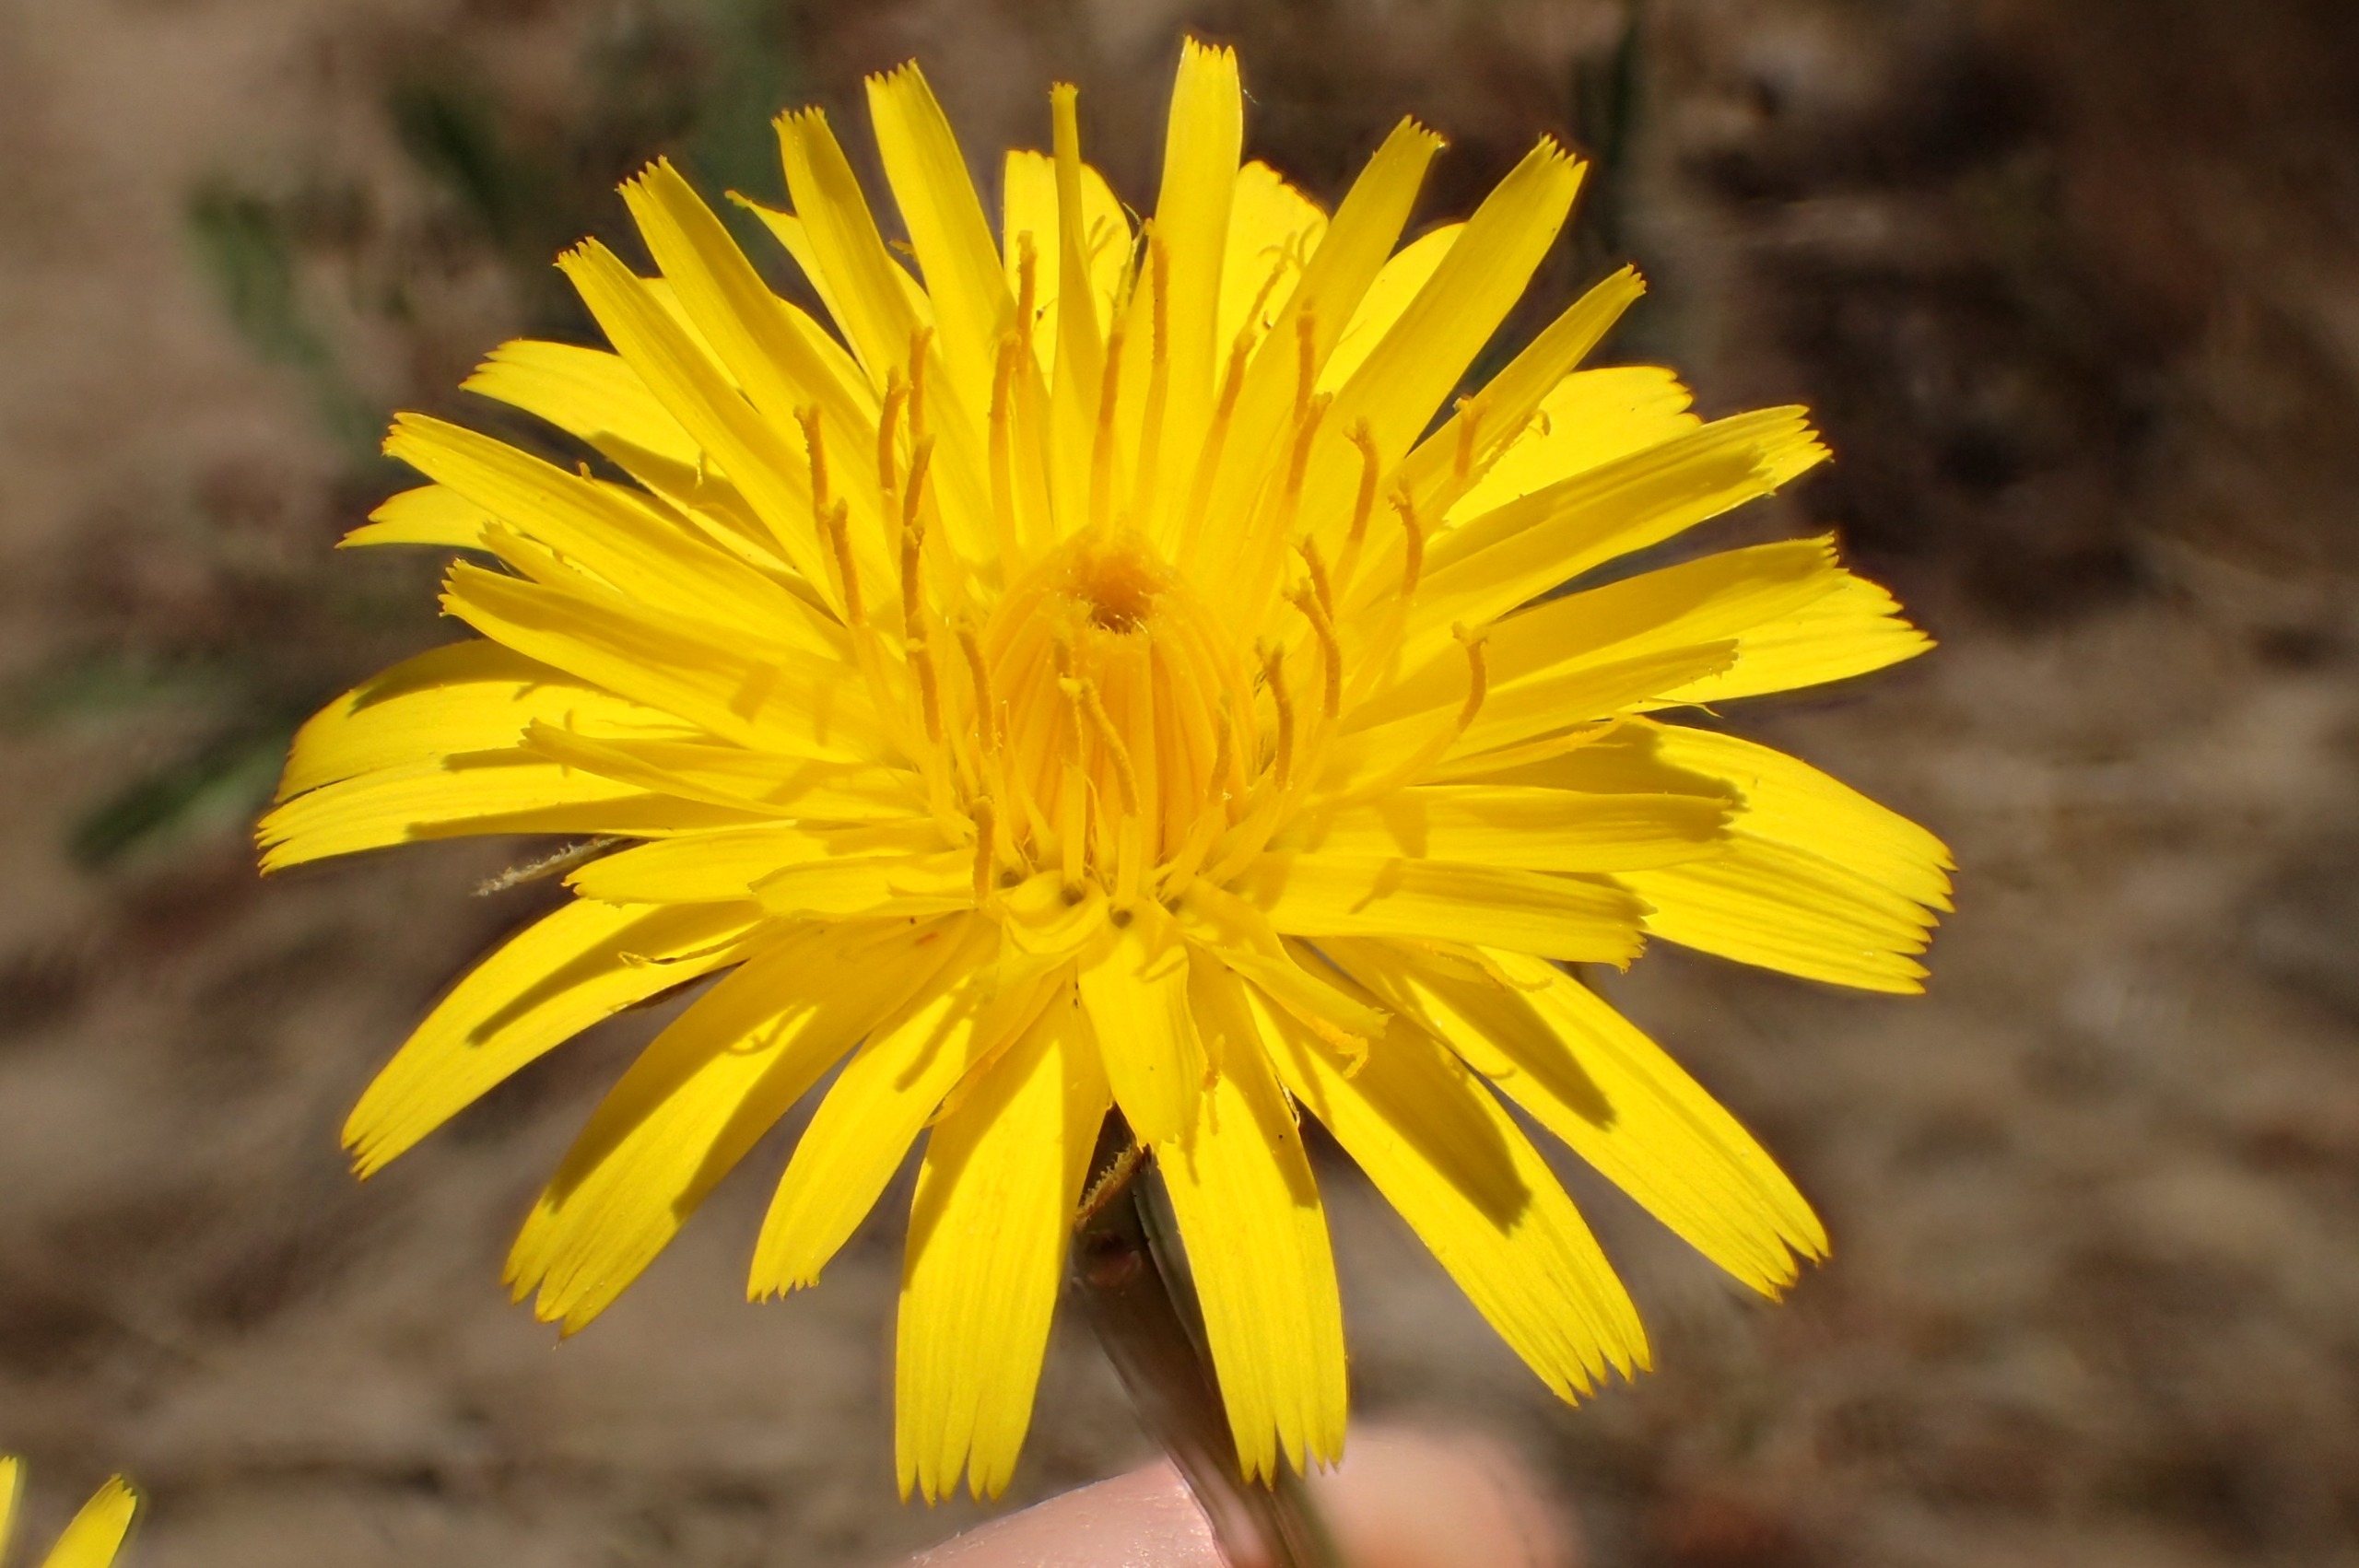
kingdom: Plantae
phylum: Tracheophyta
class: Magnoliopsida
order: Asterales
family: Asteraceae
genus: Hypochaeris
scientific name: Hypochaeris radicata
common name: Almindelig kongepen
